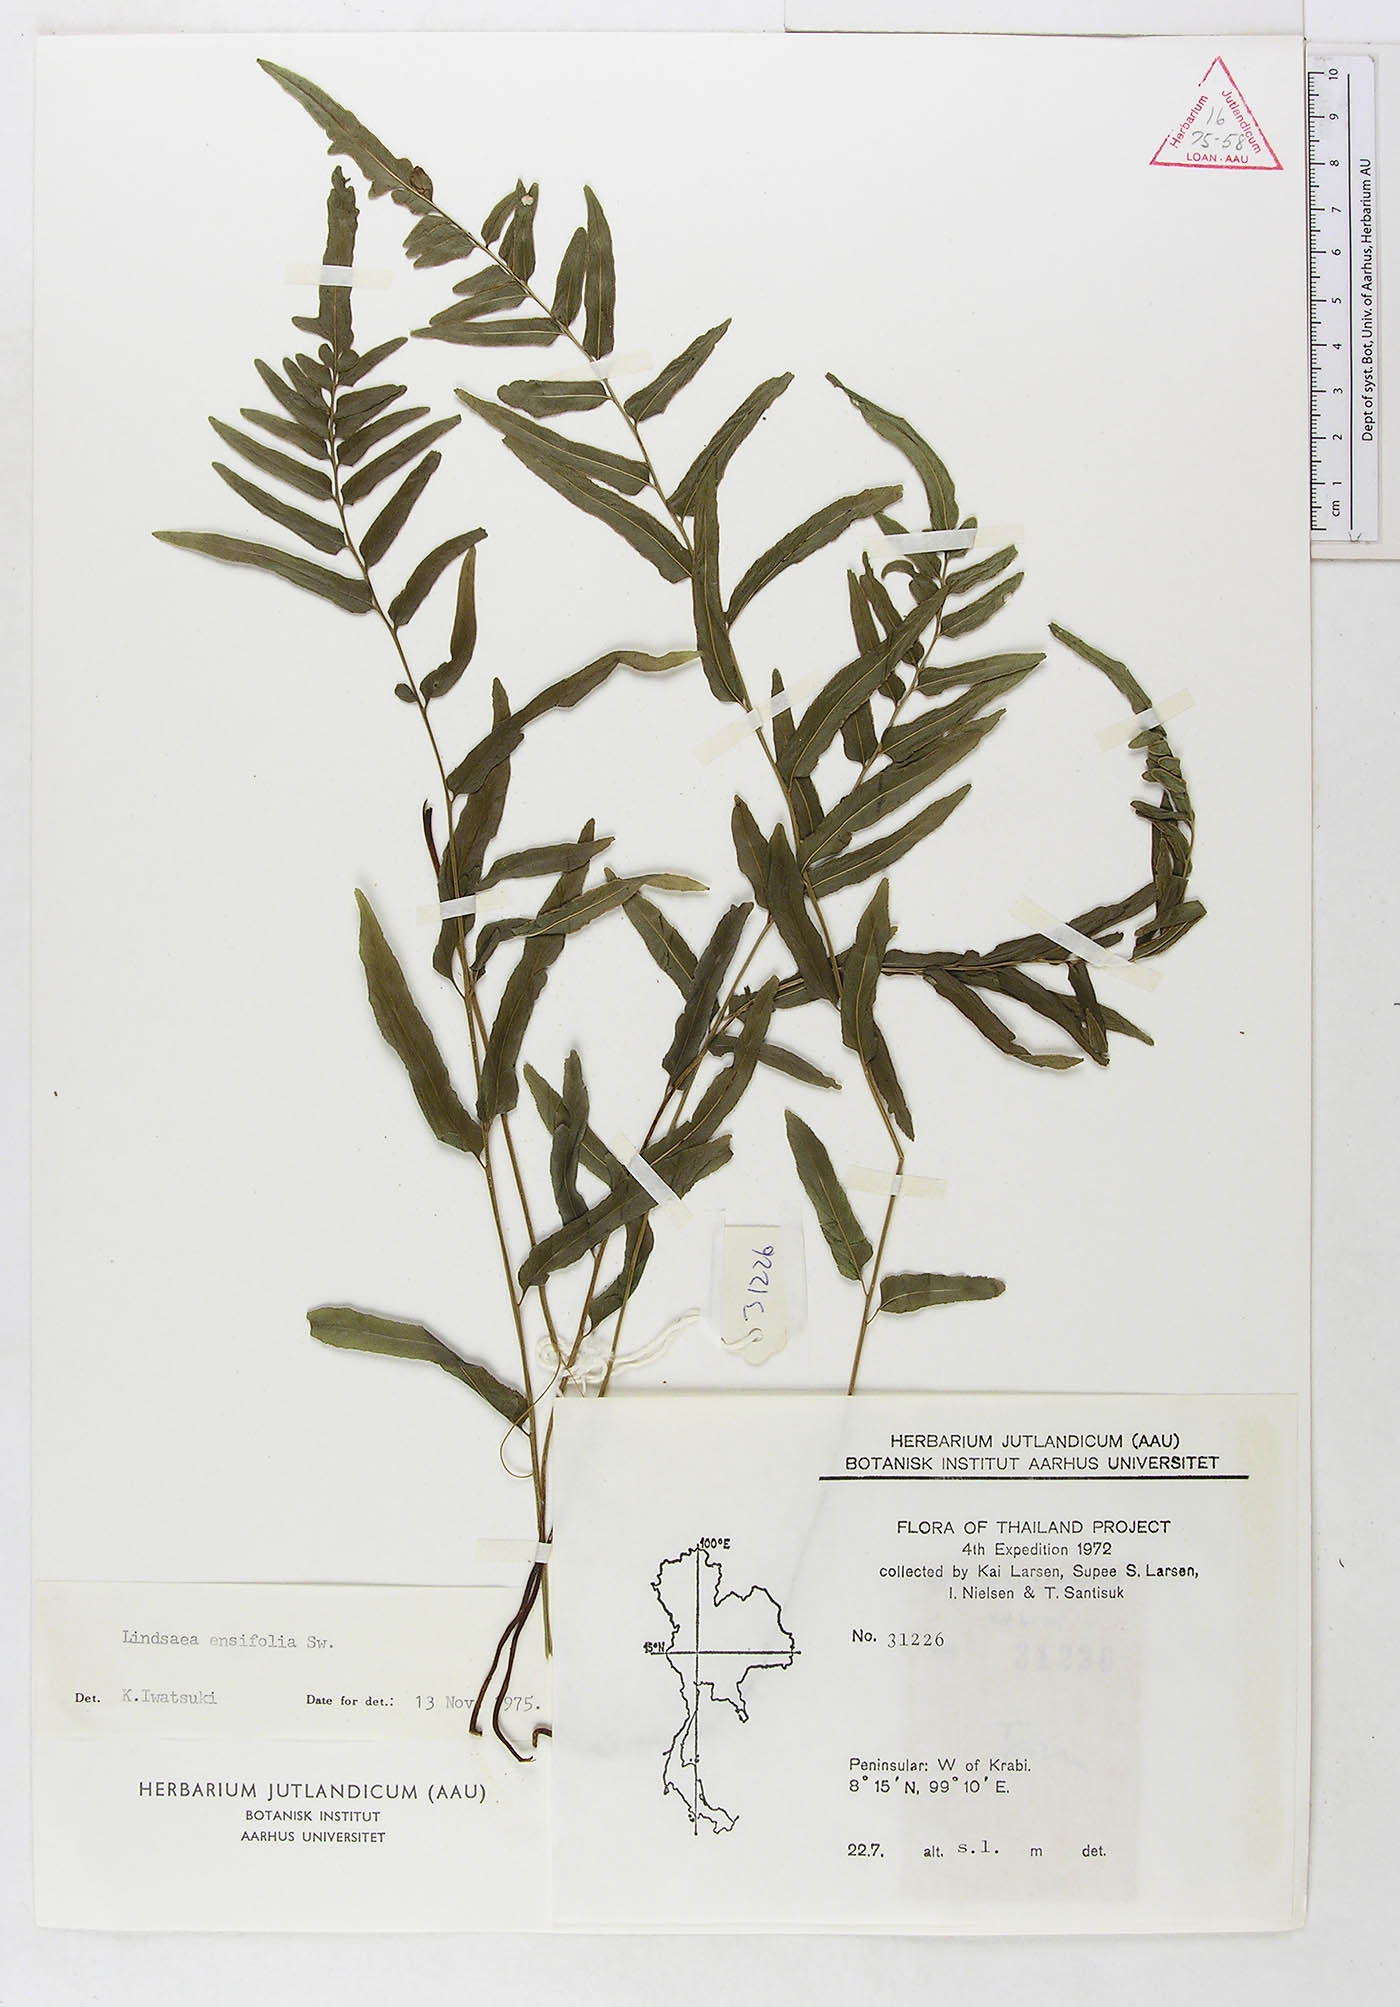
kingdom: Plantae
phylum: Tracheophyta
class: Polypodiopsida
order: Polypodiales
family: Lindsaeaceae
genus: Lindsaea
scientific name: Lindsaea ensifolia
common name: Graceful necklace fern
